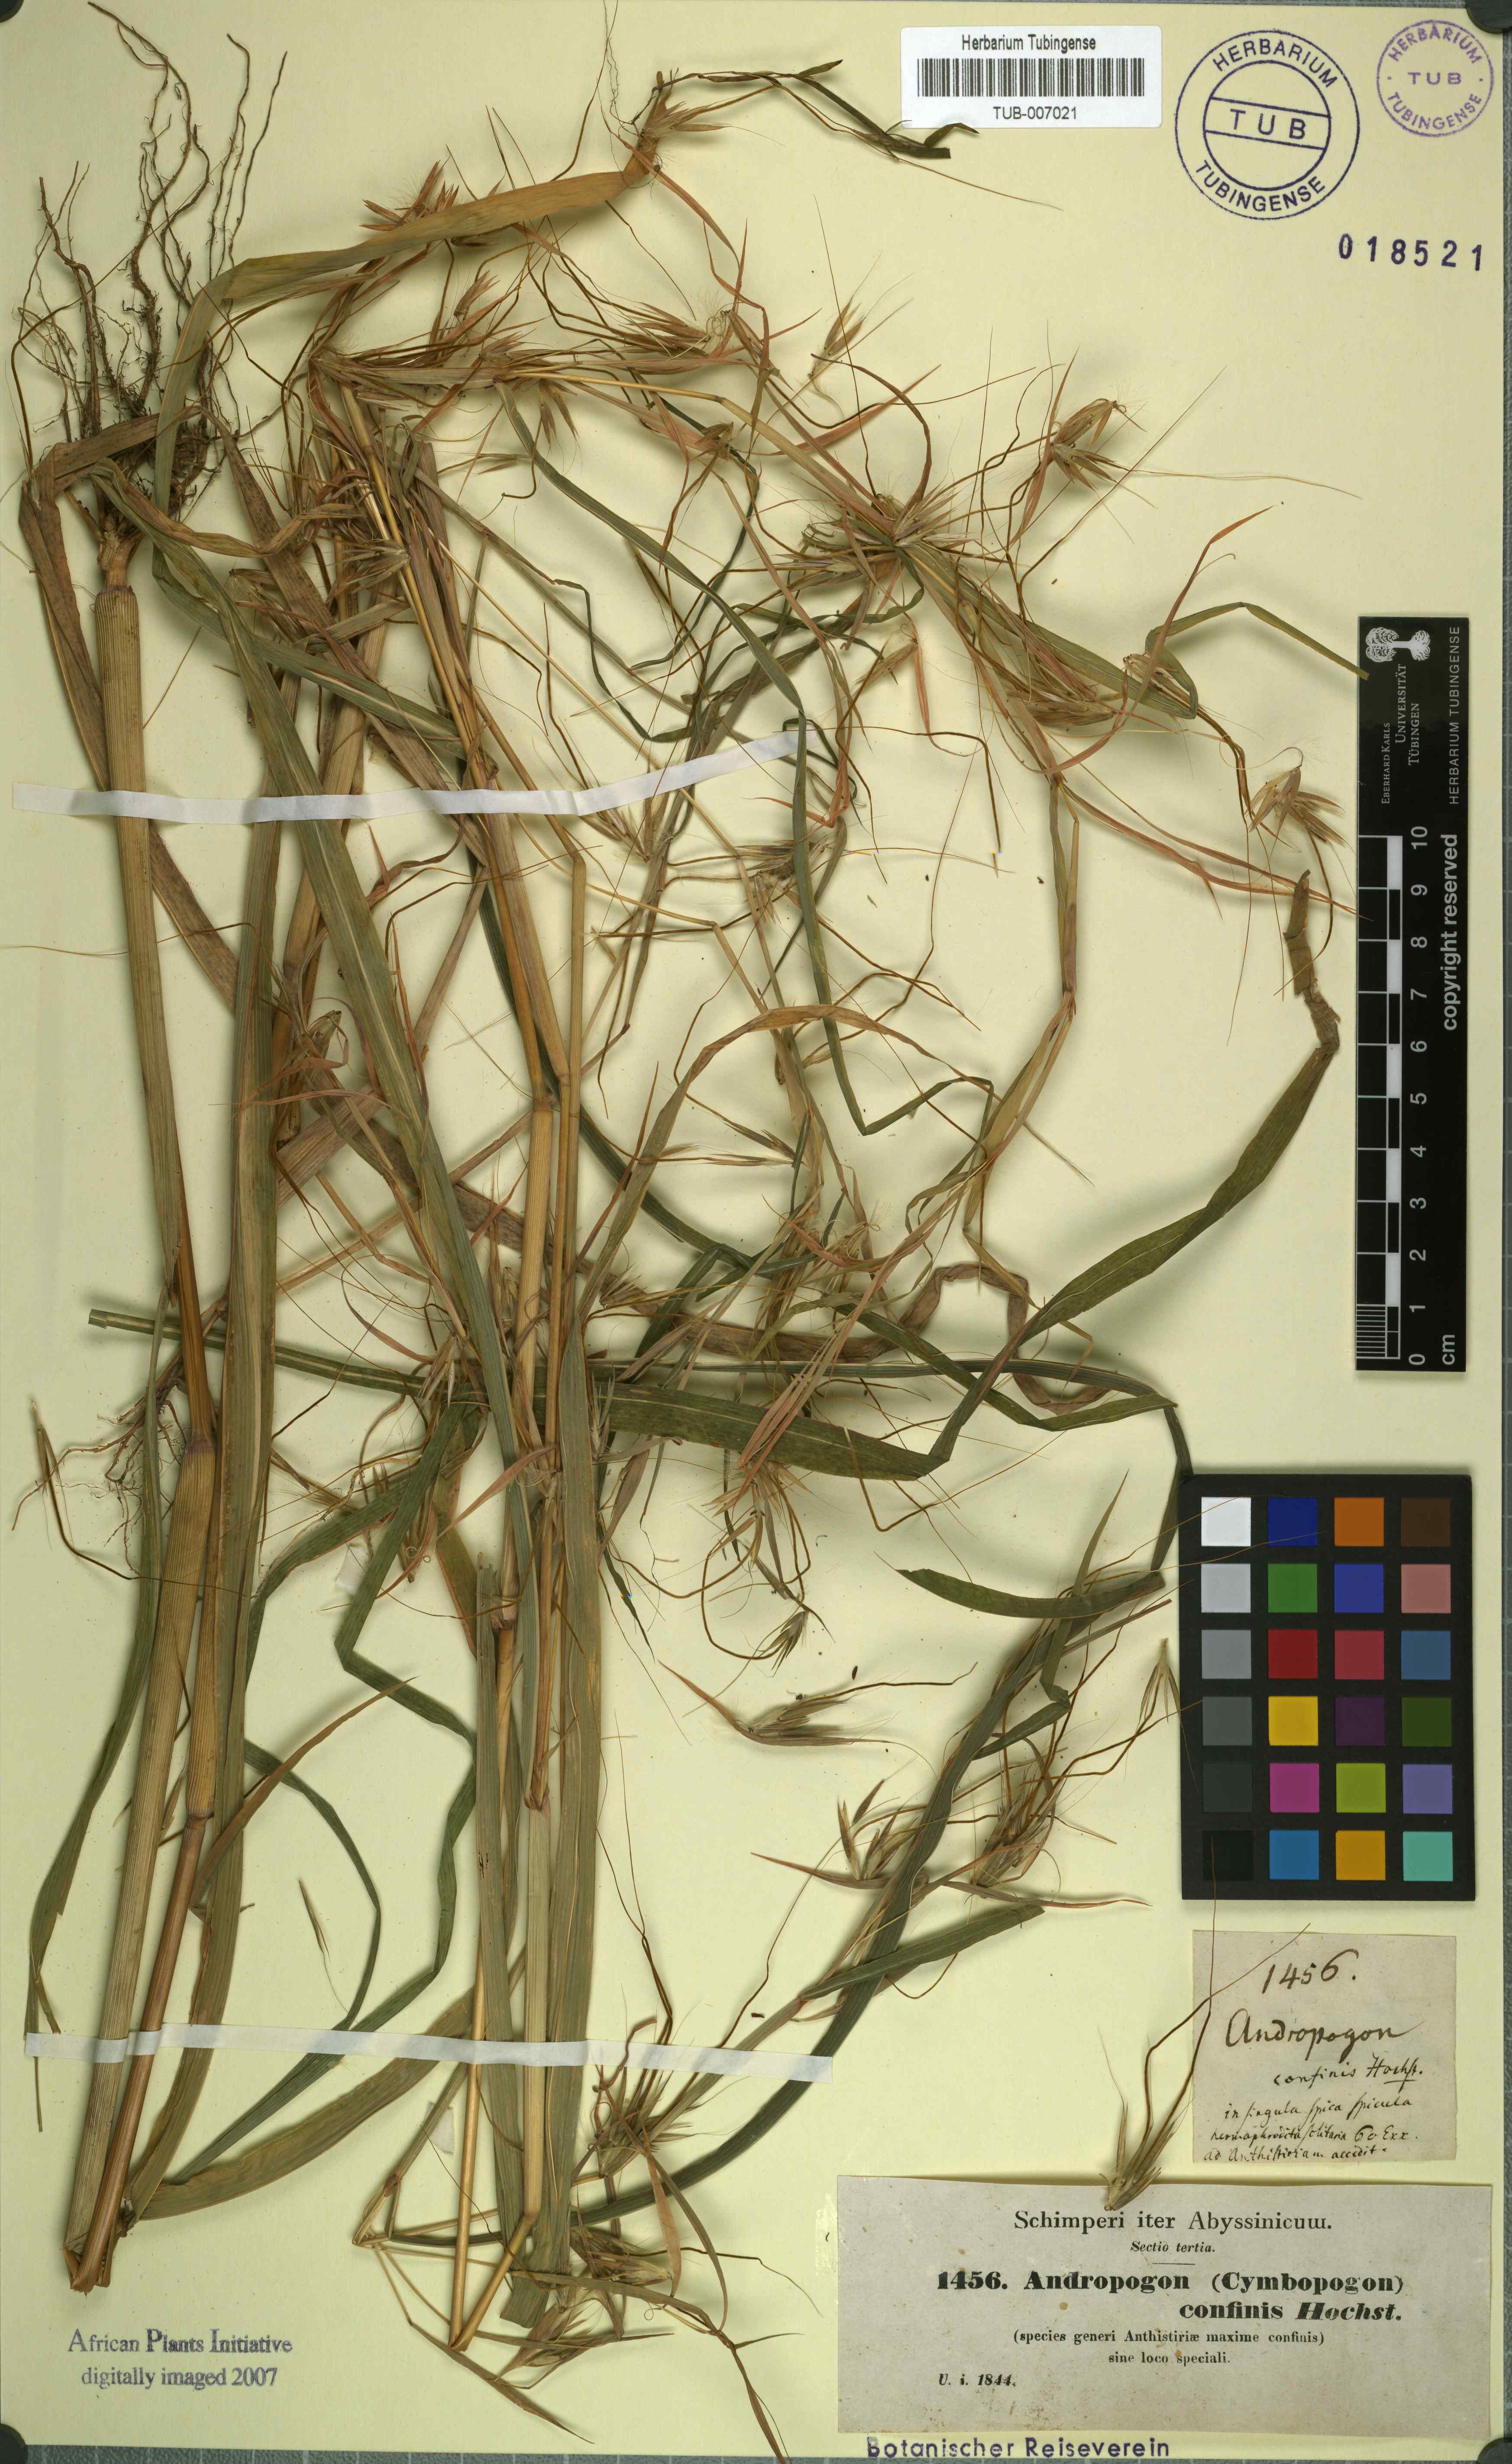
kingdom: Plantae
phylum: Tracheophyta
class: Liliopsida
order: Poales
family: Poaceae
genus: Hyparrhenia
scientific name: Hyparrhenia confinis
